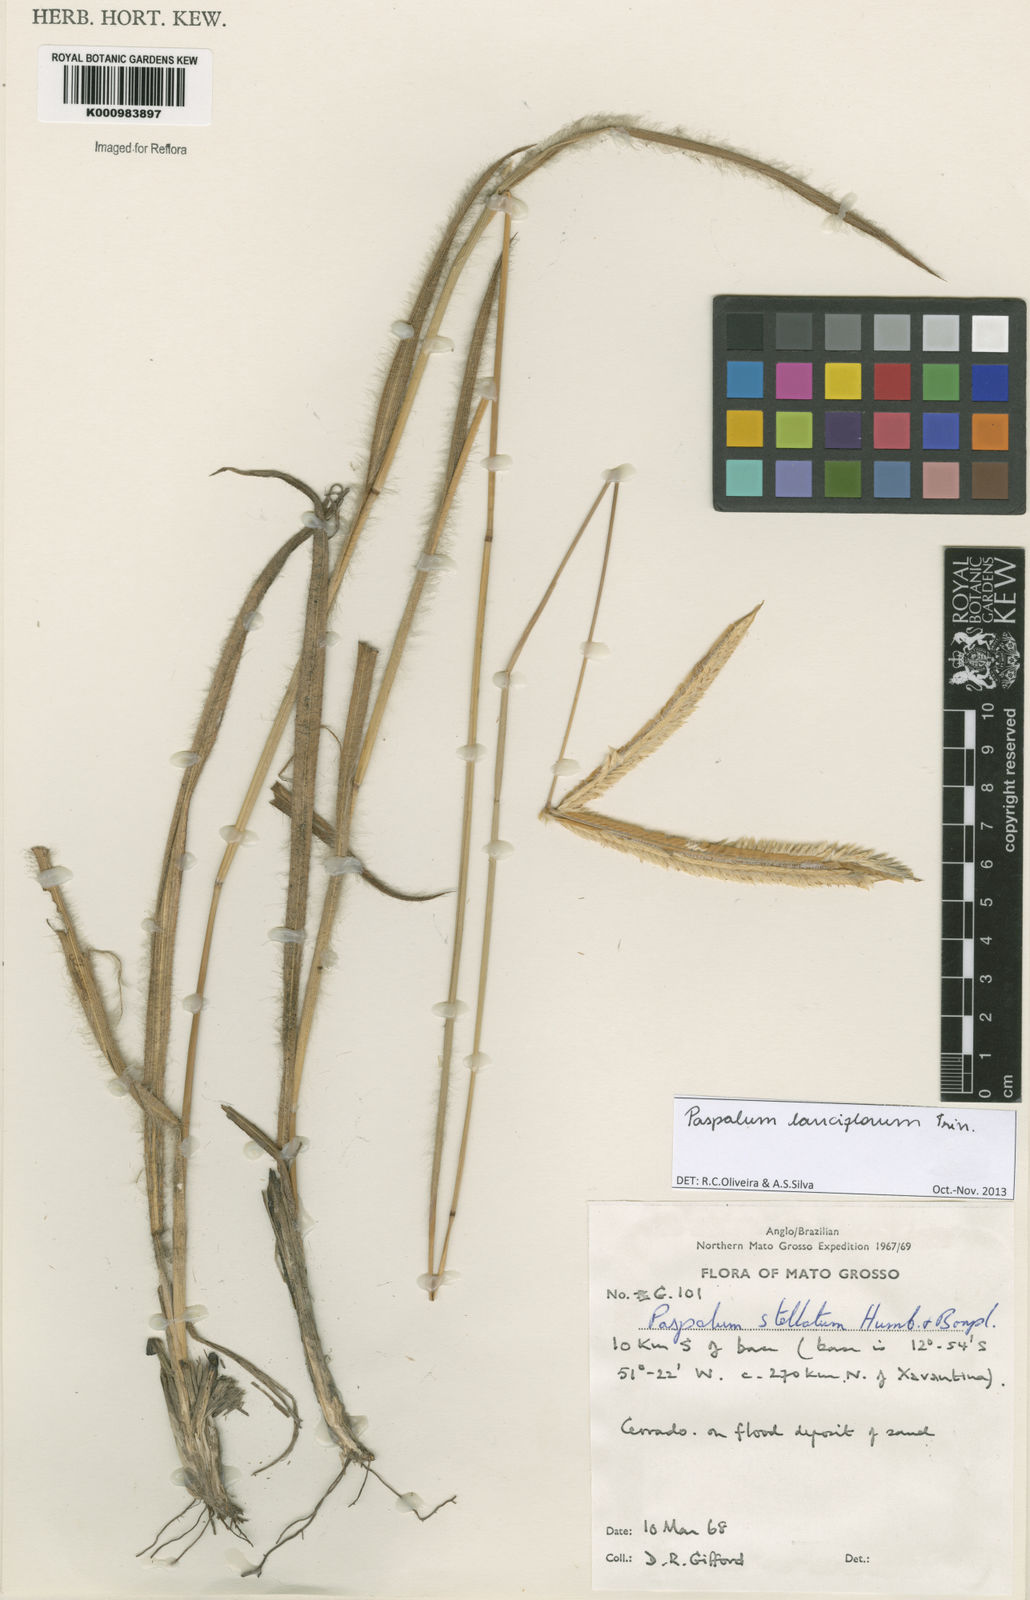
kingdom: Plantae
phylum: Tracheophyta
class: Liliopsida
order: Poales
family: Poaceae
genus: Paspalum
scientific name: Paspalum
